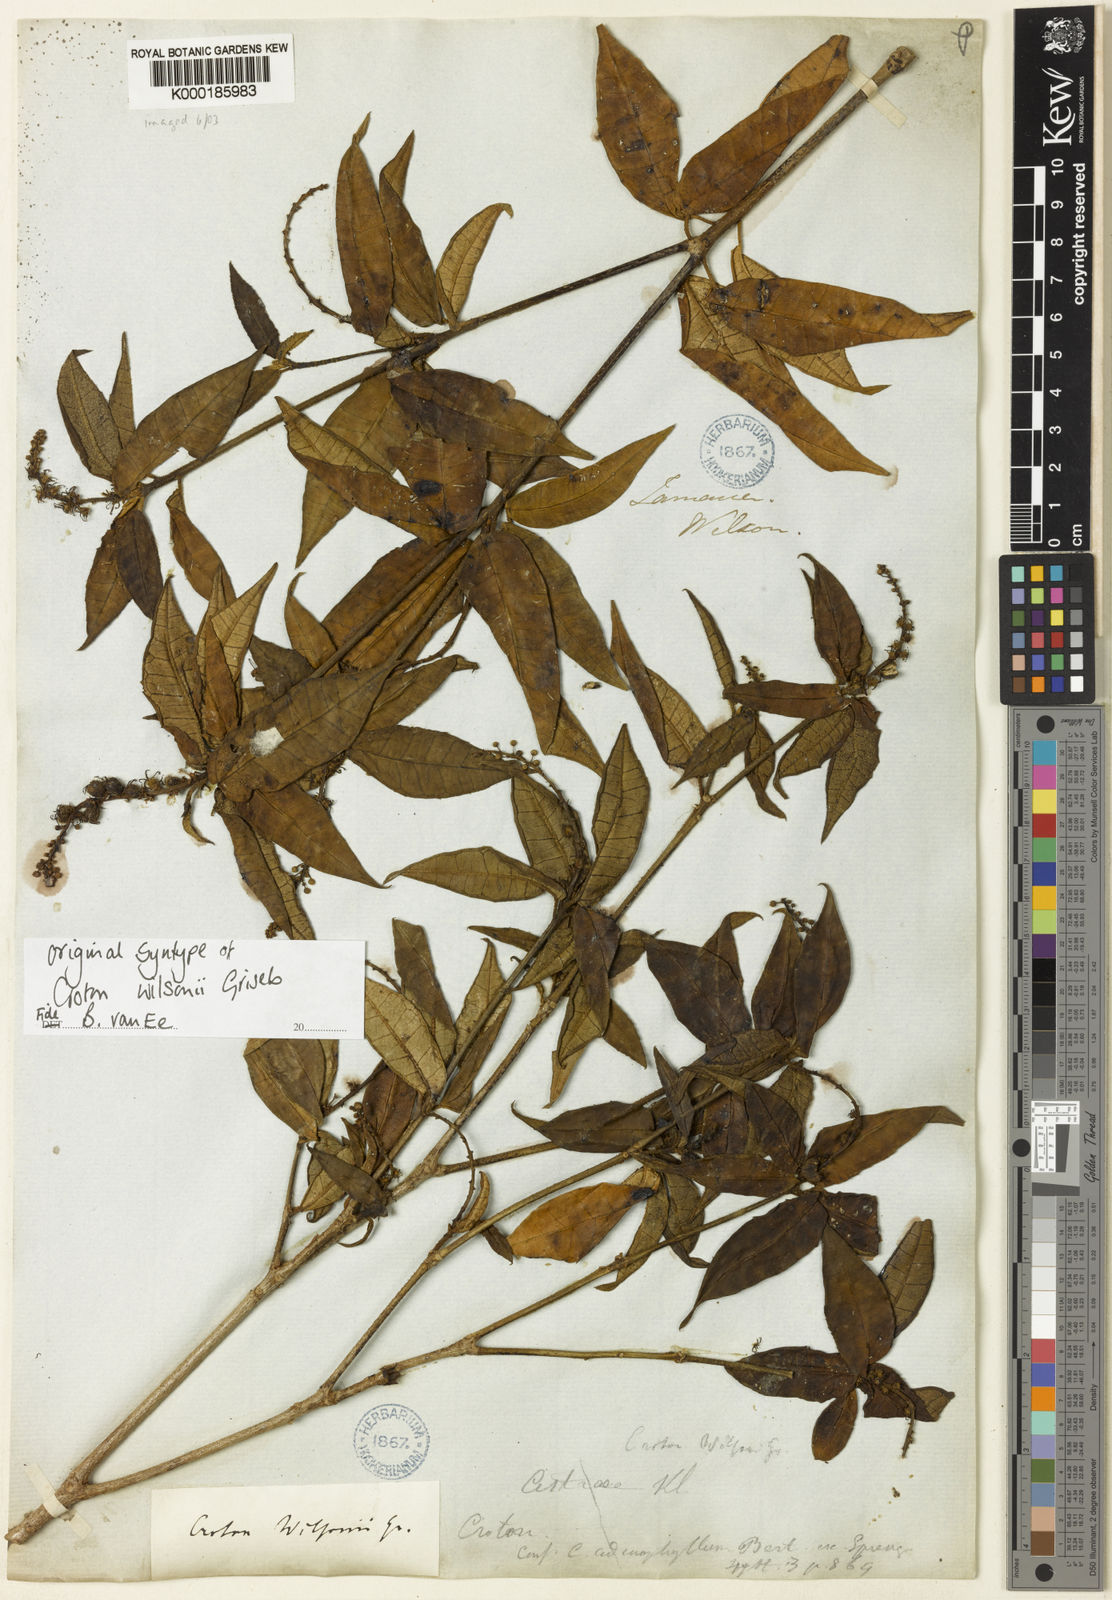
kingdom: Plantae
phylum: Tracheophyta
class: Magnoliopsida
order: Malpighiales
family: Euphorbiaceae
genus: Croton
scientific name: Croton lucidus
